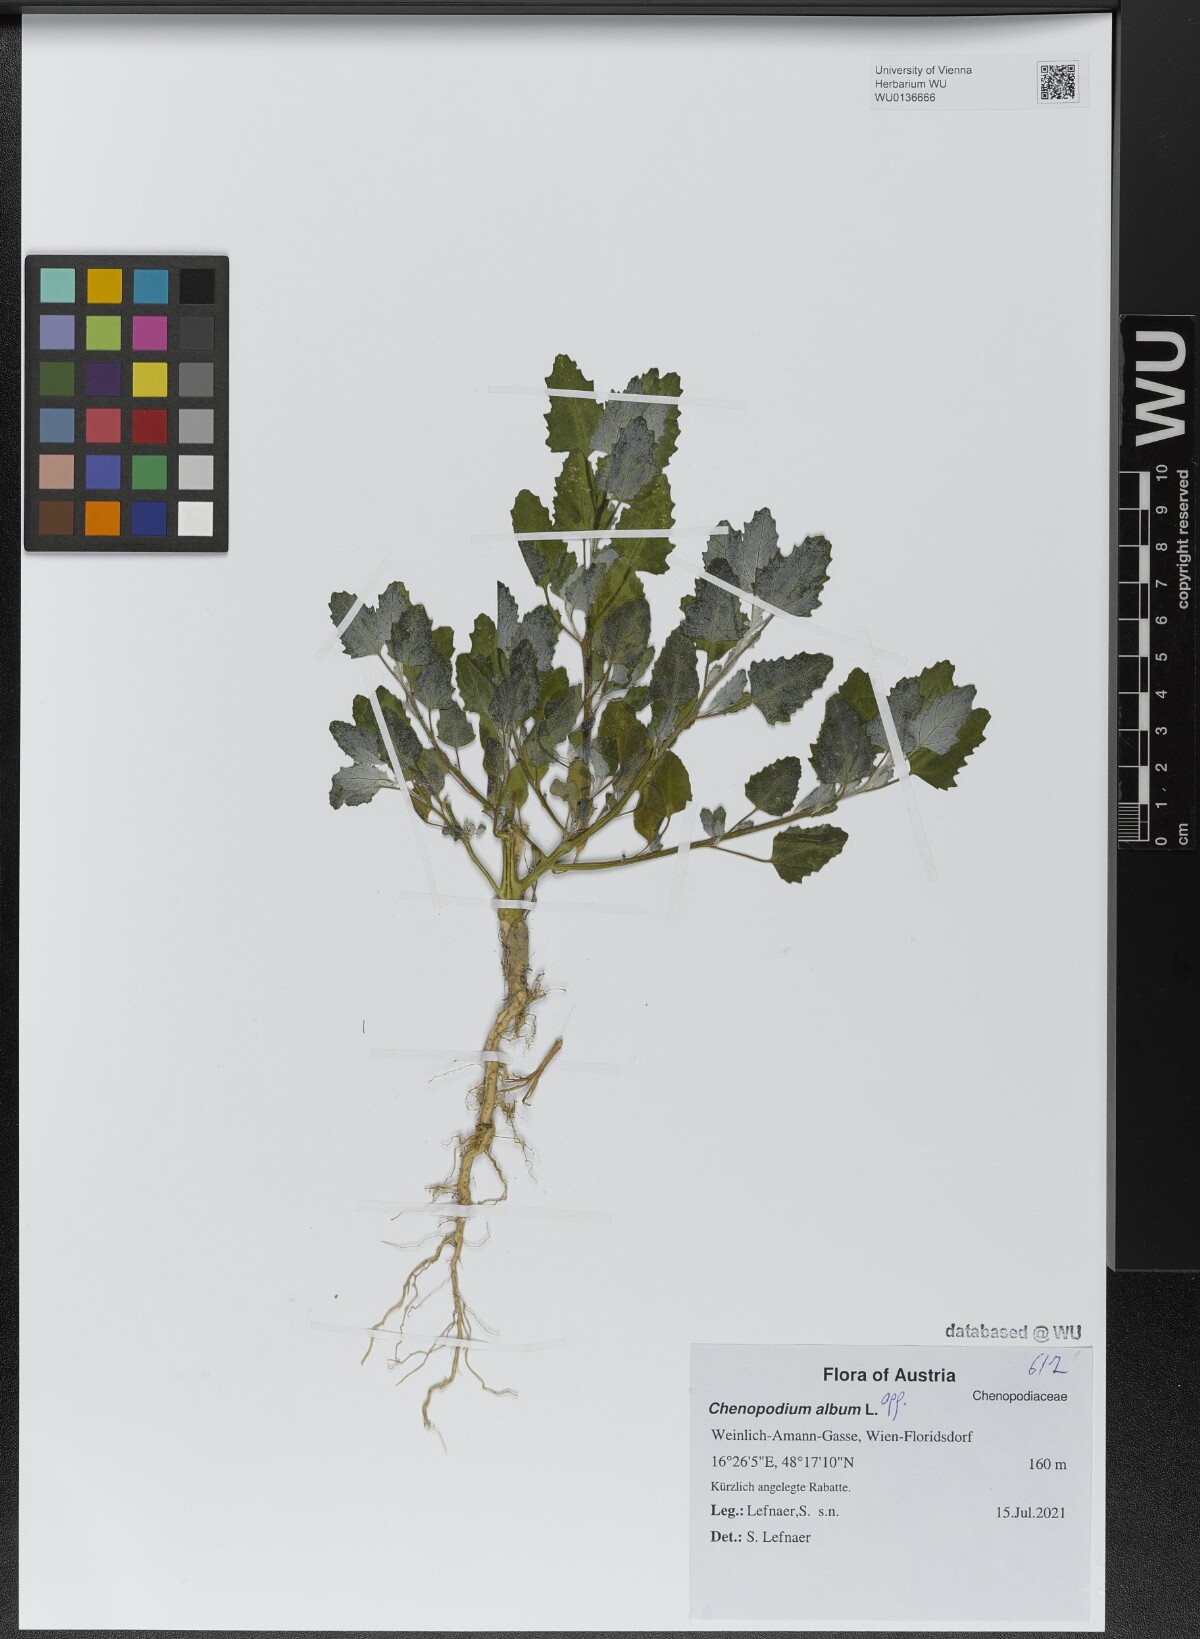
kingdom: Plantae
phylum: Tracheophyta
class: Magnoliopsida
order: Caryophyllales
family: Amaranthaceae
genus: Chenopodium
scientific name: Chenopodium album
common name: Fat-hen
